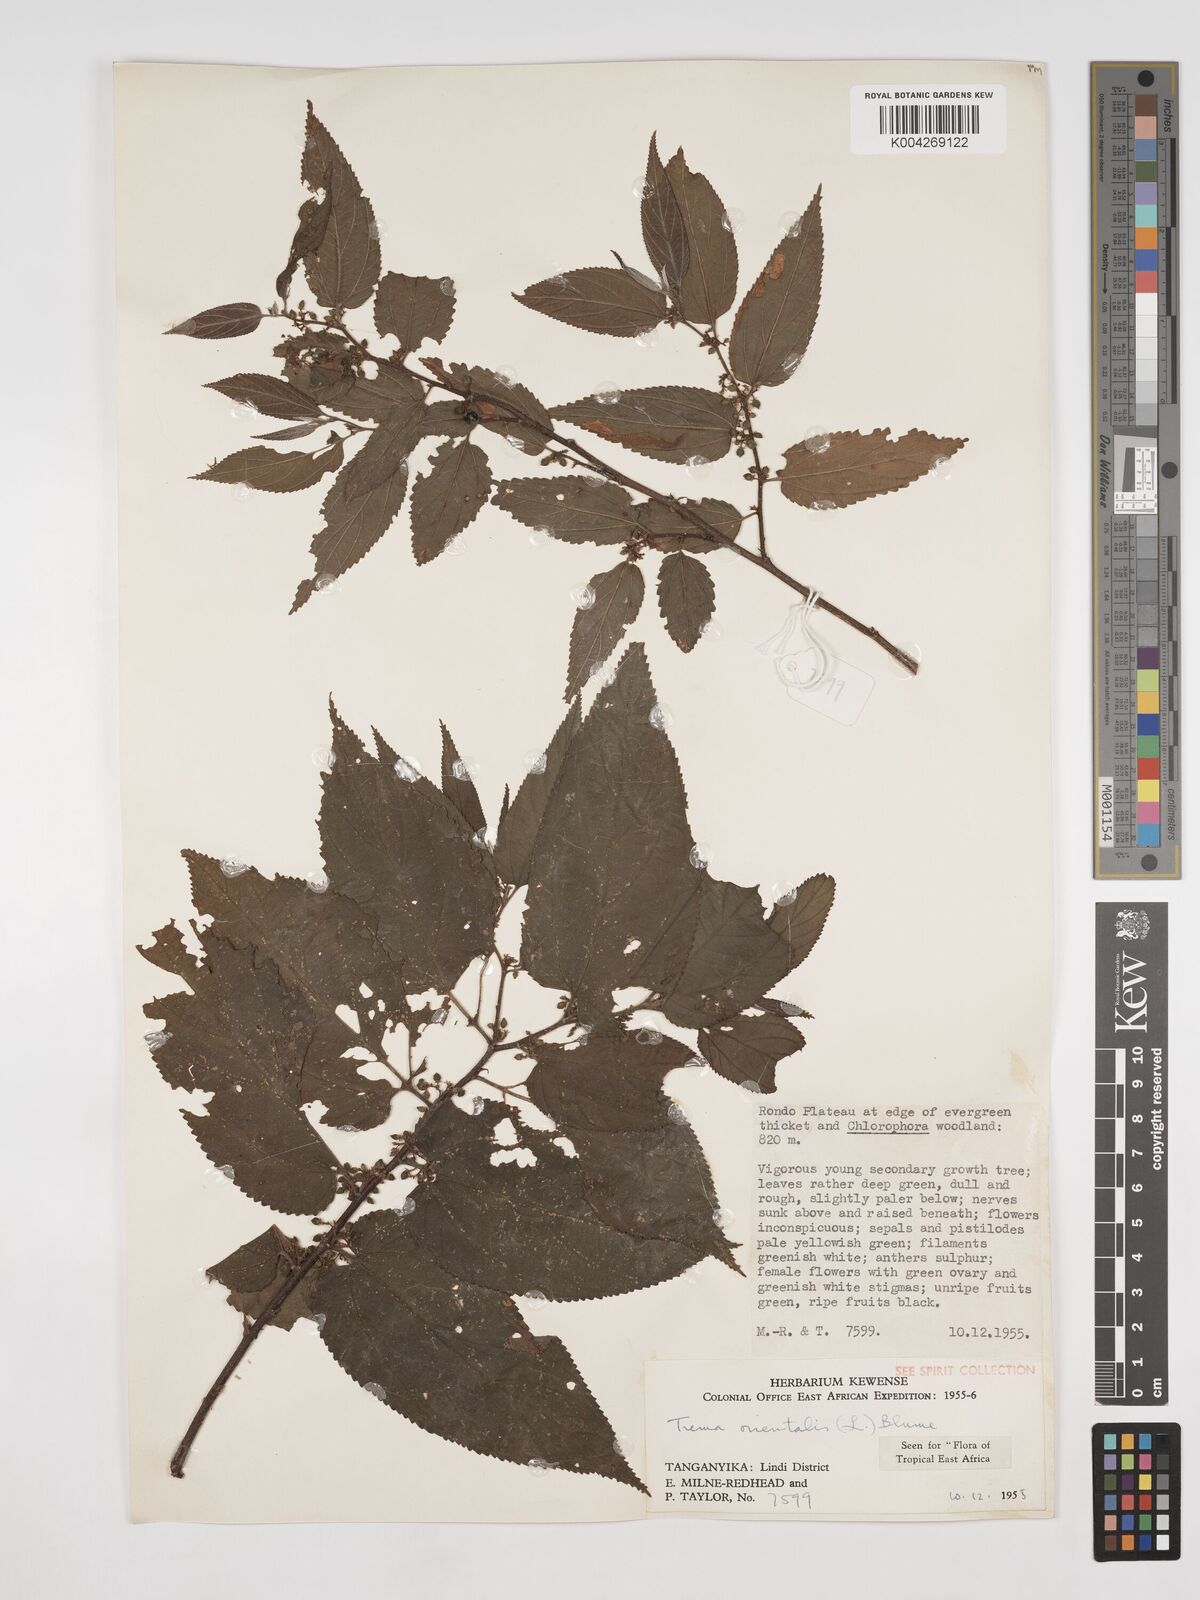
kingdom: Plantae
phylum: Tracheophyta
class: Magnoliopsida
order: Rosales
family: Cannabaceae
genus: Trema
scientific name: Trema orientale
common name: Indian charcoal tree
